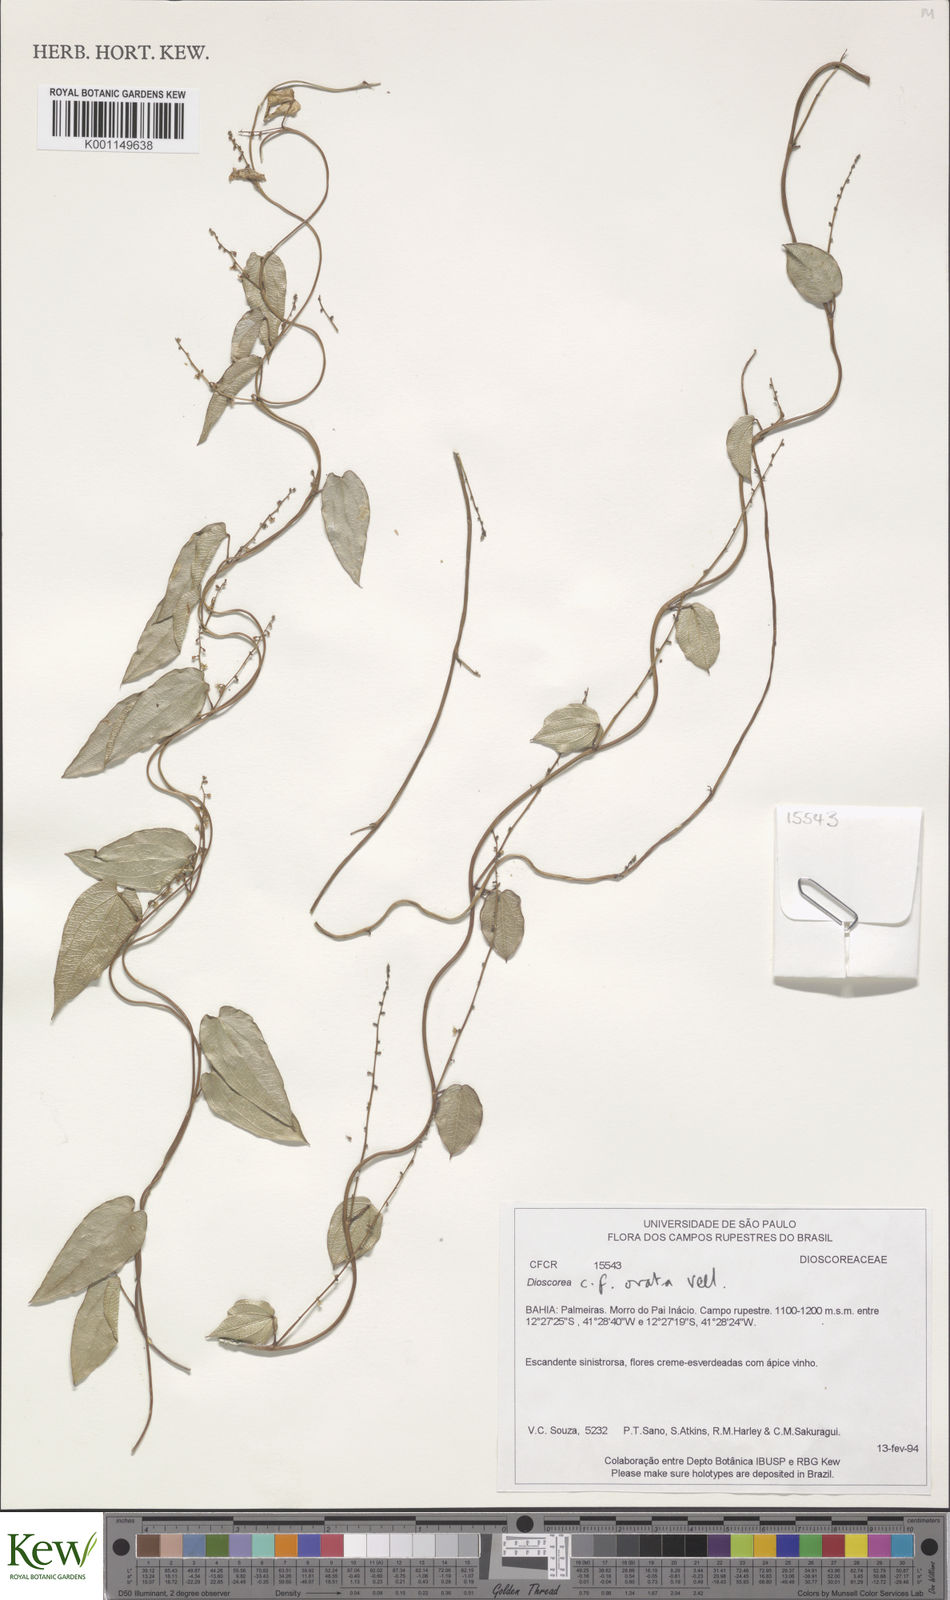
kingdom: Plantae
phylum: Tracheophyta
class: Liliopsida
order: Dioscoreales
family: Dioscoreaceae
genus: Dioscorea
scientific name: Dioscorea sincorensis
